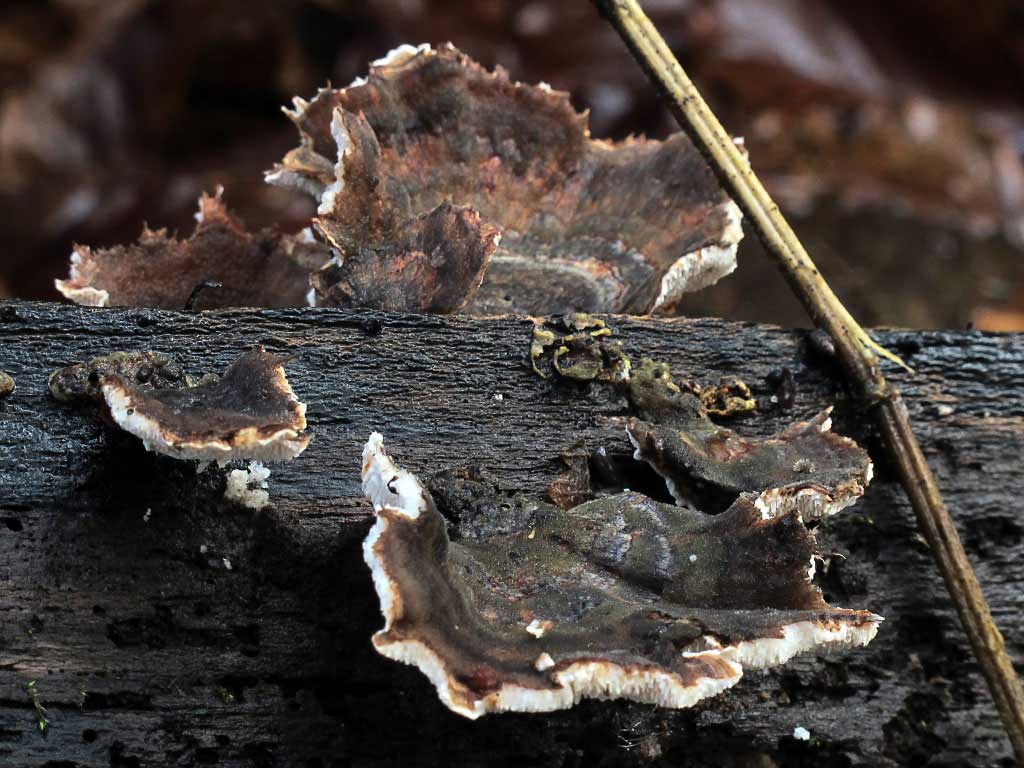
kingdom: Fungi
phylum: Basidiomycota
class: Agaricomycetes
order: Polyporales
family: Polyporaceae
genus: Trametes
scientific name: Trametes versicolor
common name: broget læderporesvamp
